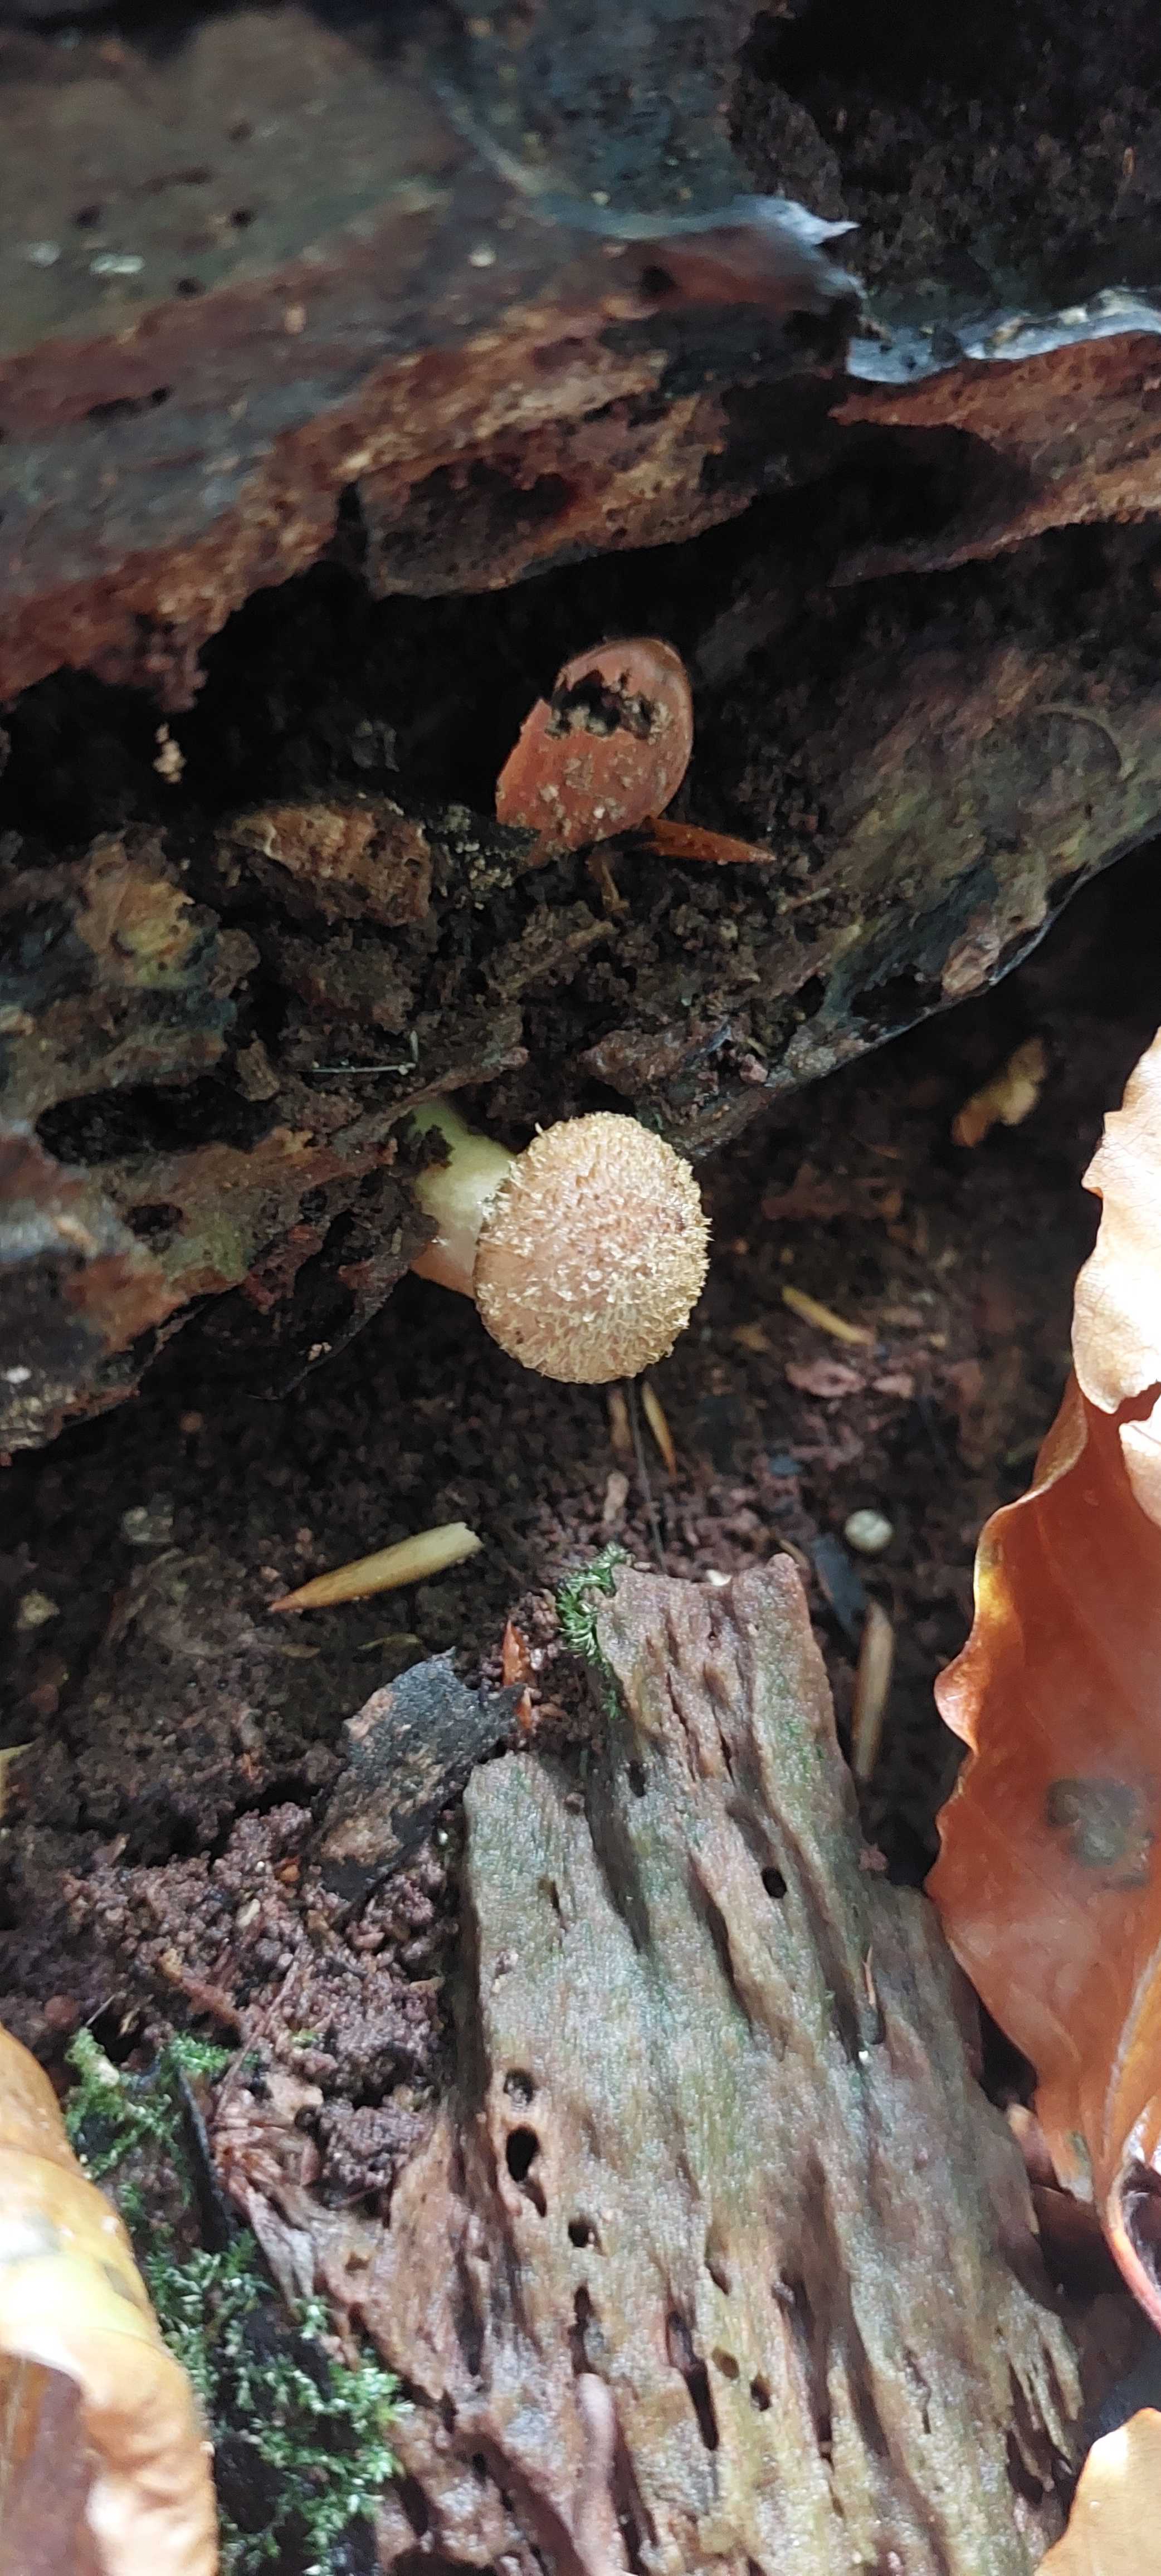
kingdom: Fungi
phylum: Basidiomycota
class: Agaricomycetes
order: Agaricales
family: Physalacriaceae
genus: Armillaria
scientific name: Armillaria
